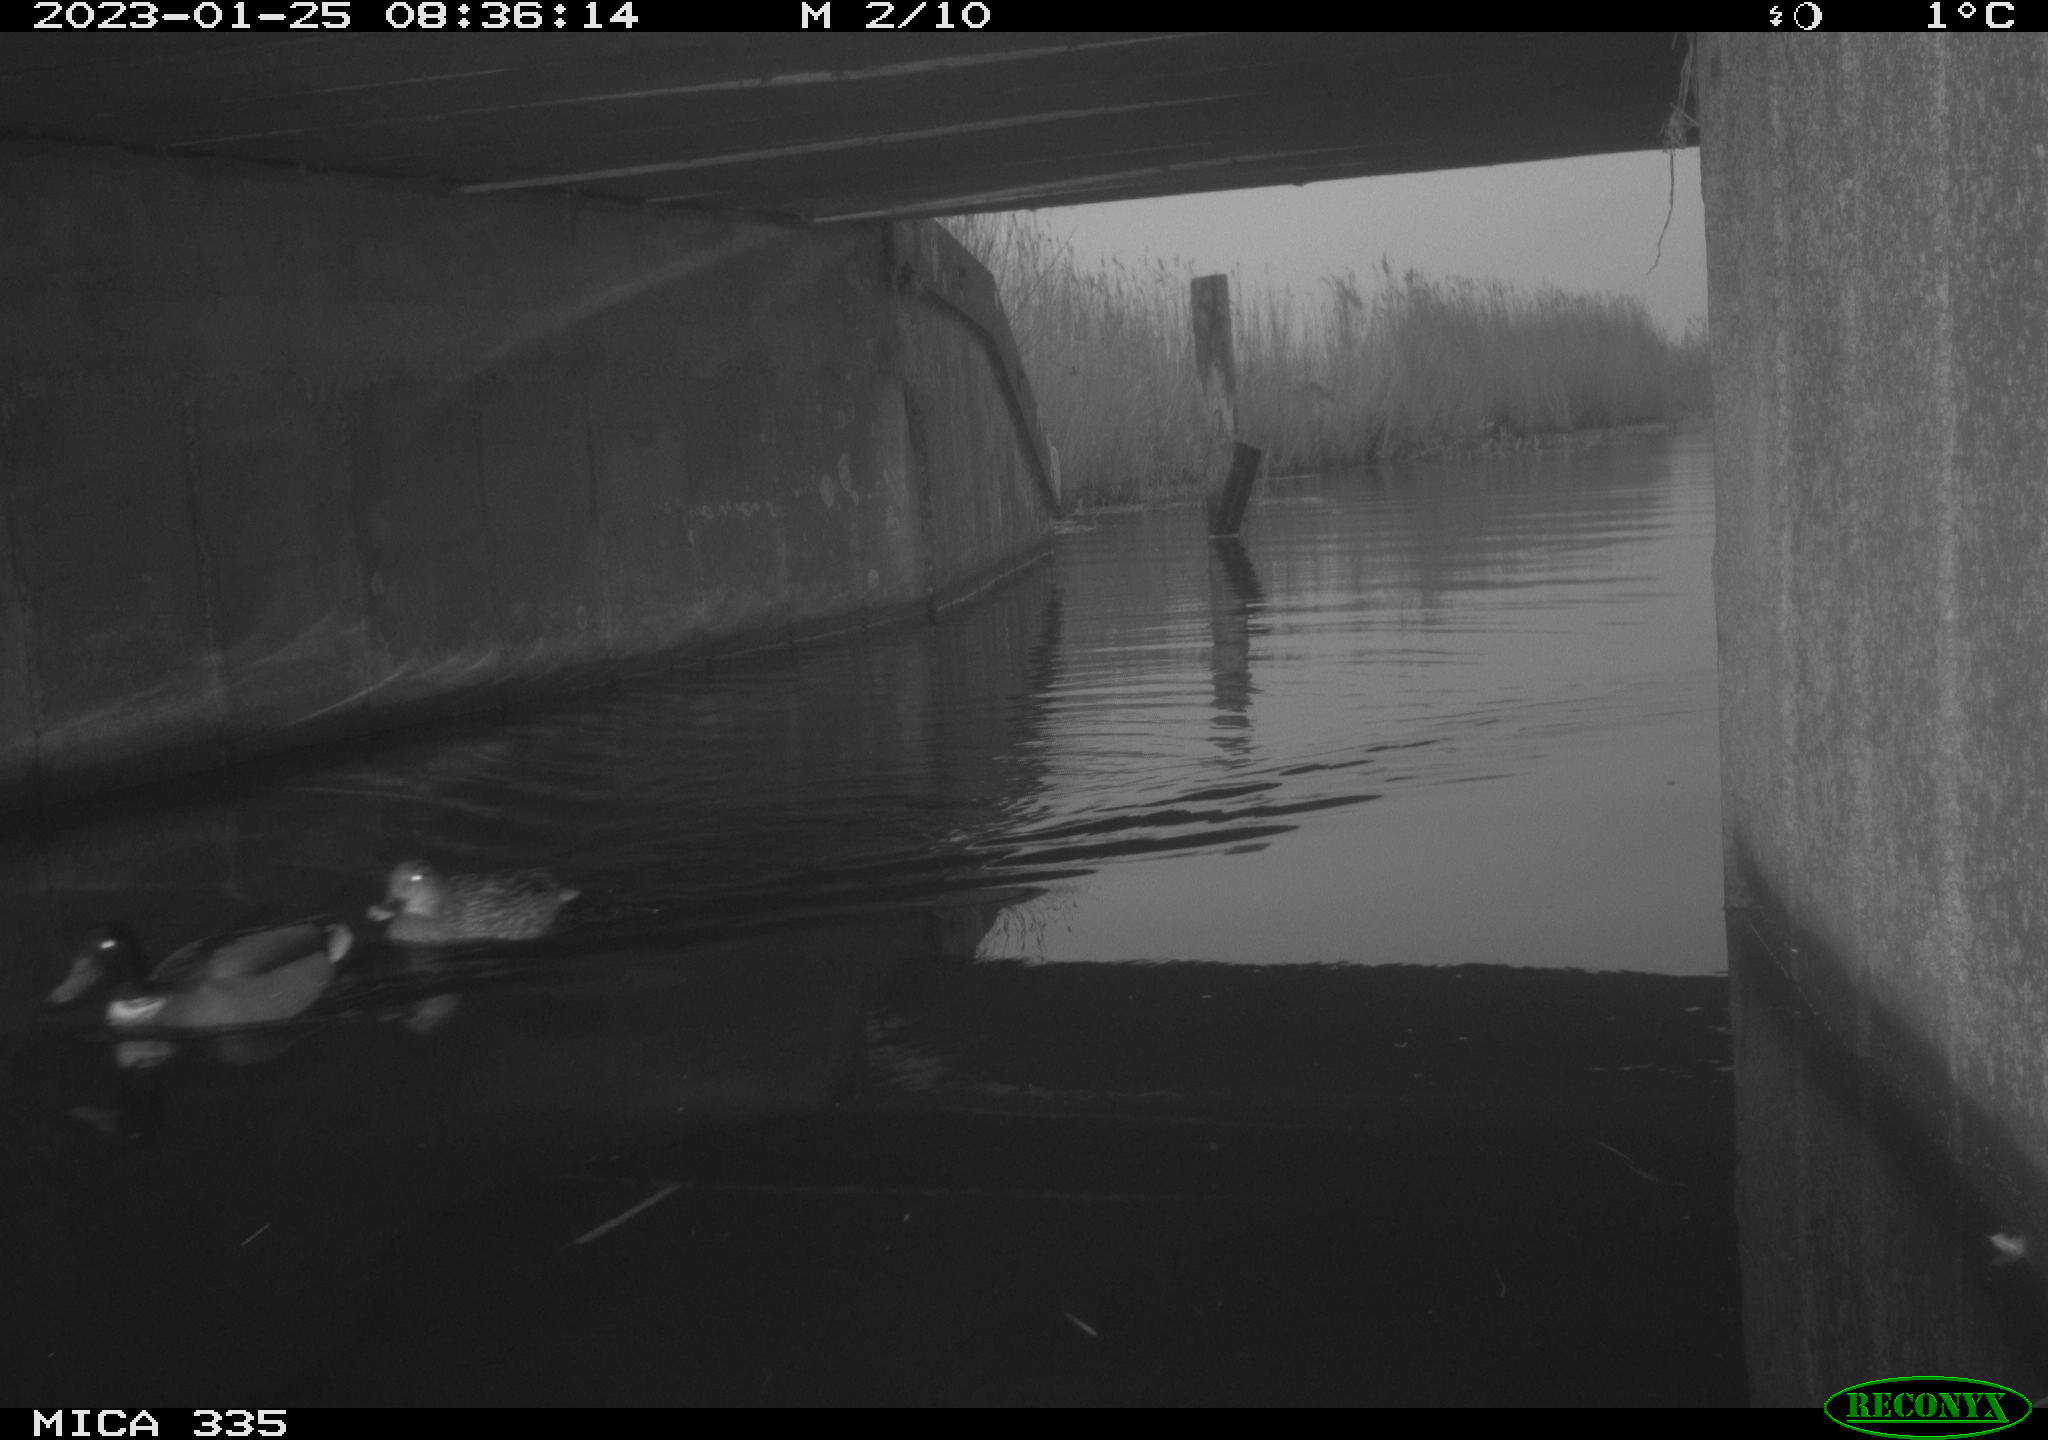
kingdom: Animalia
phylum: Chordata
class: Aves
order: Anseriformes
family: Anatidae
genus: Anas
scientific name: Anas
